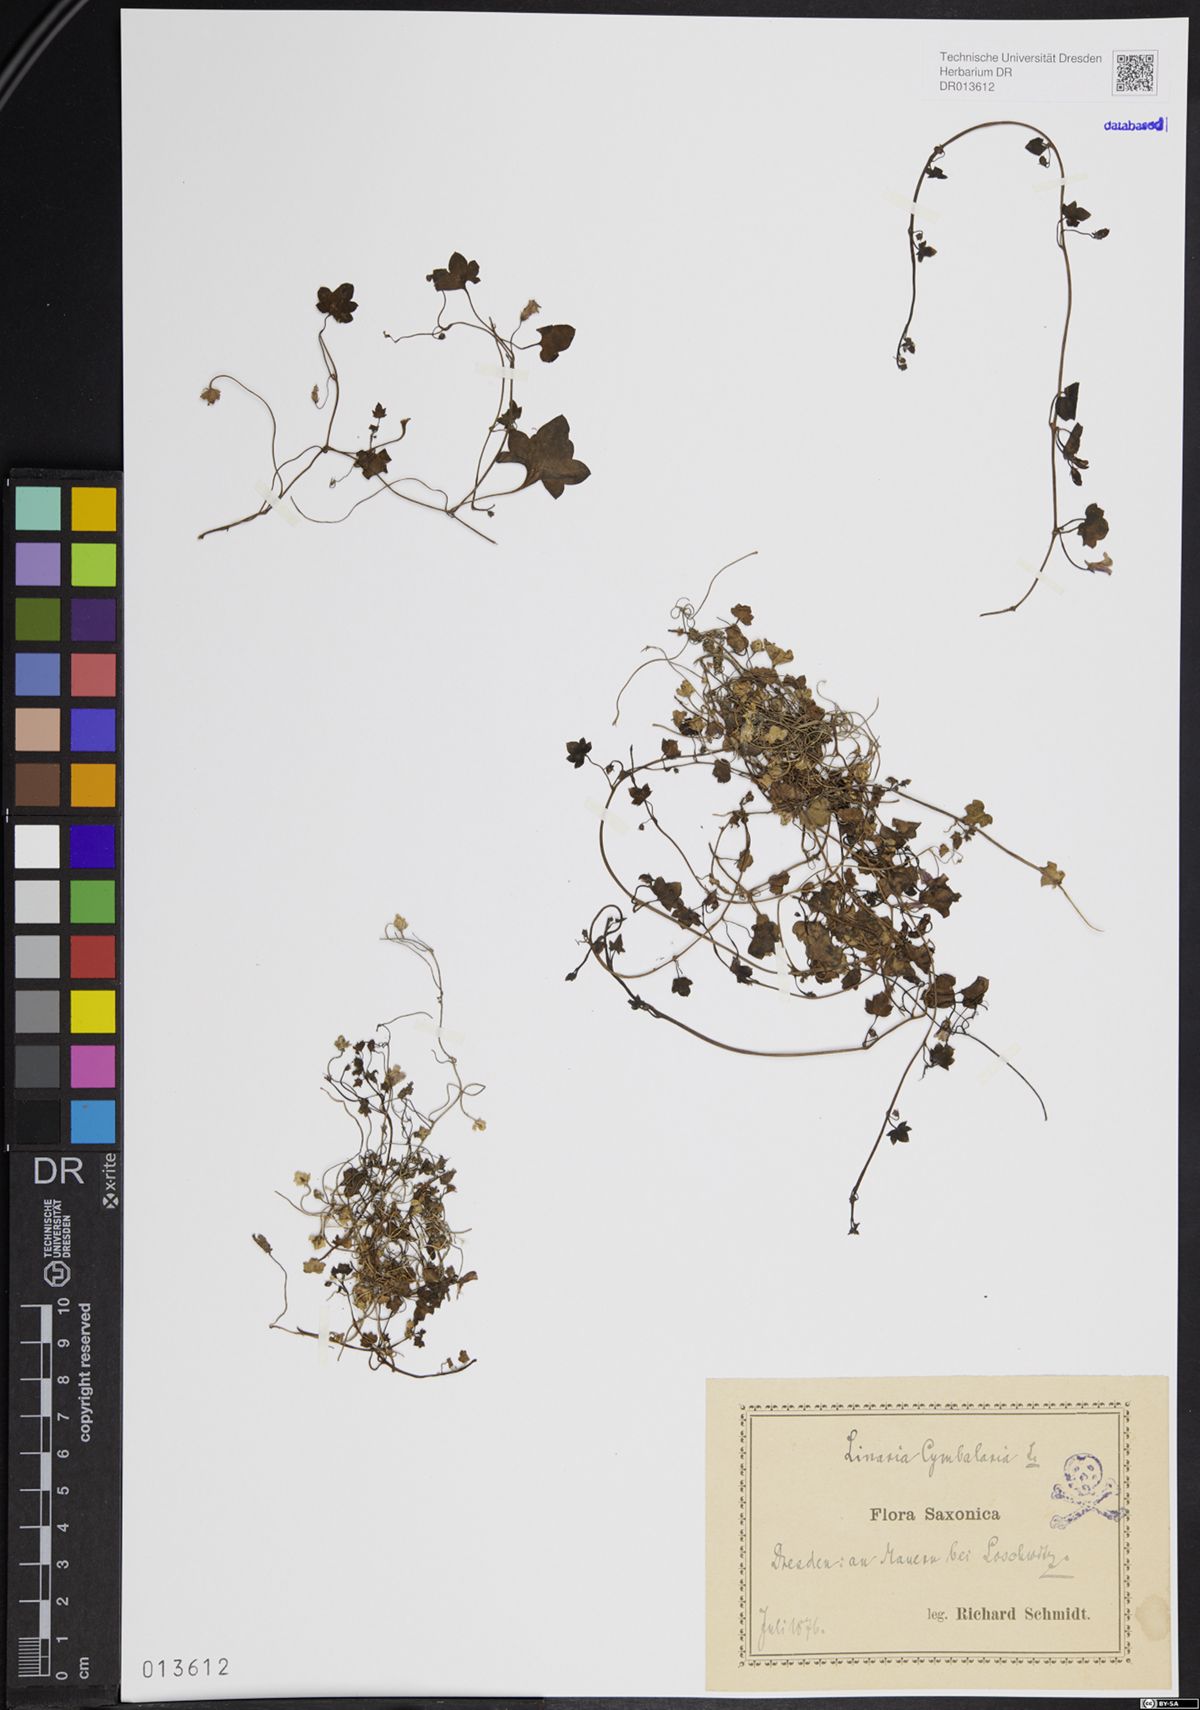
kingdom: Plantae
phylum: Tracheophyta
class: Magnoliopsida
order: Lamiales
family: Plantaginaceae
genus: Cymbalaria
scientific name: Cymbalaria muralis
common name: Ivy-leaved toadflax
